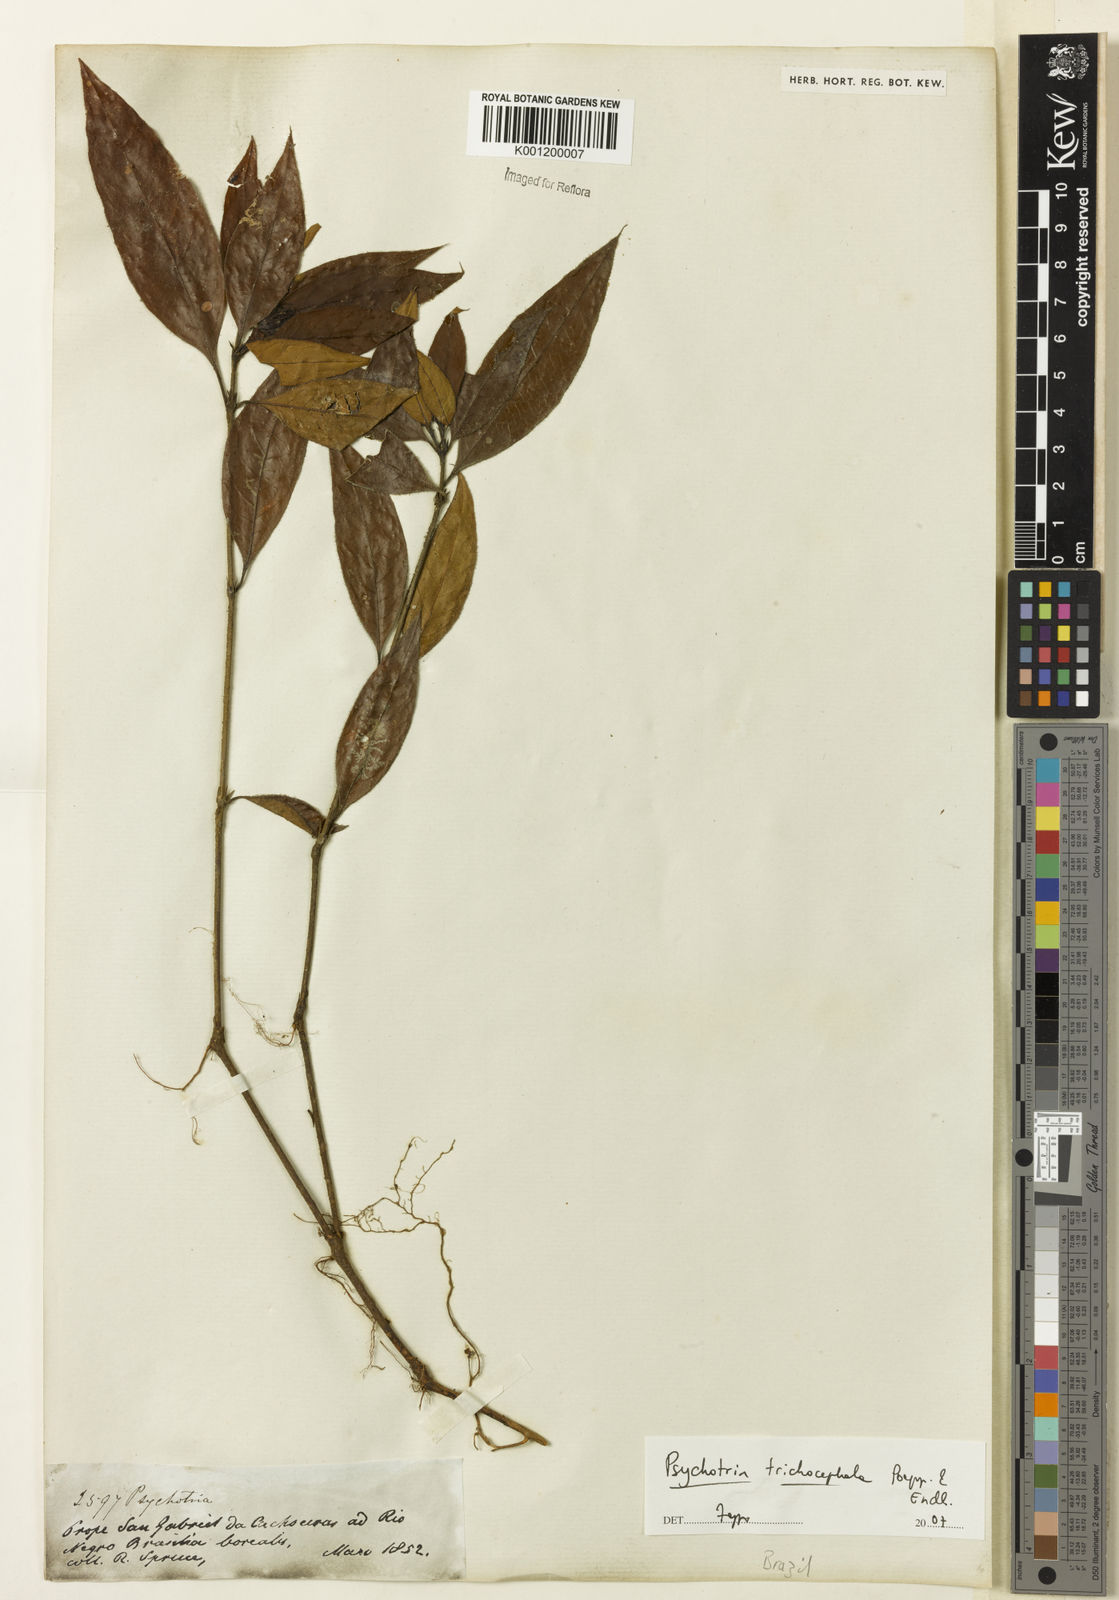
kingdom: Plantae
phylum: Tracheophyta
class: Magnoliopsida
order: Gentianales
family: Rubiaceae
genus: Psychotria
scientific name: Psychotria
